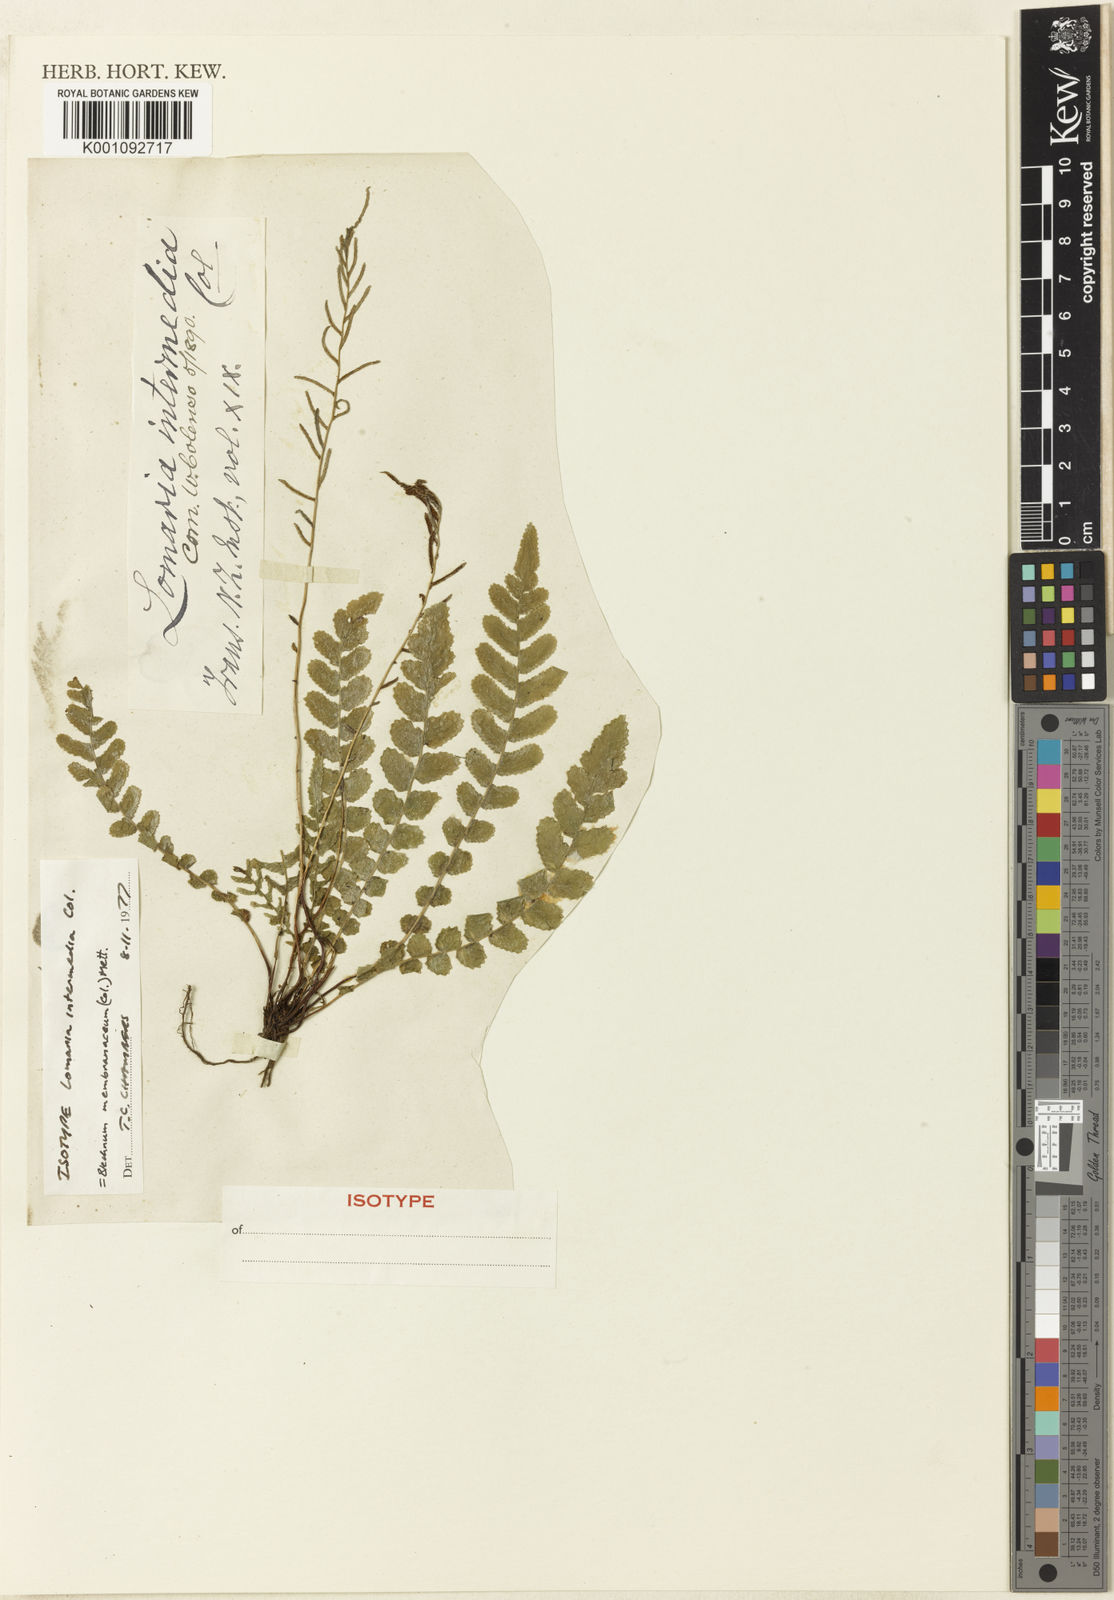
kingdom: Plantae
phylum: Tracheophyta
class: Polypodiopsida
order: Polypodiales
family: Blechnaceae
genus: Austroblechnum
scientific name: Austroblechnum membranaceum
